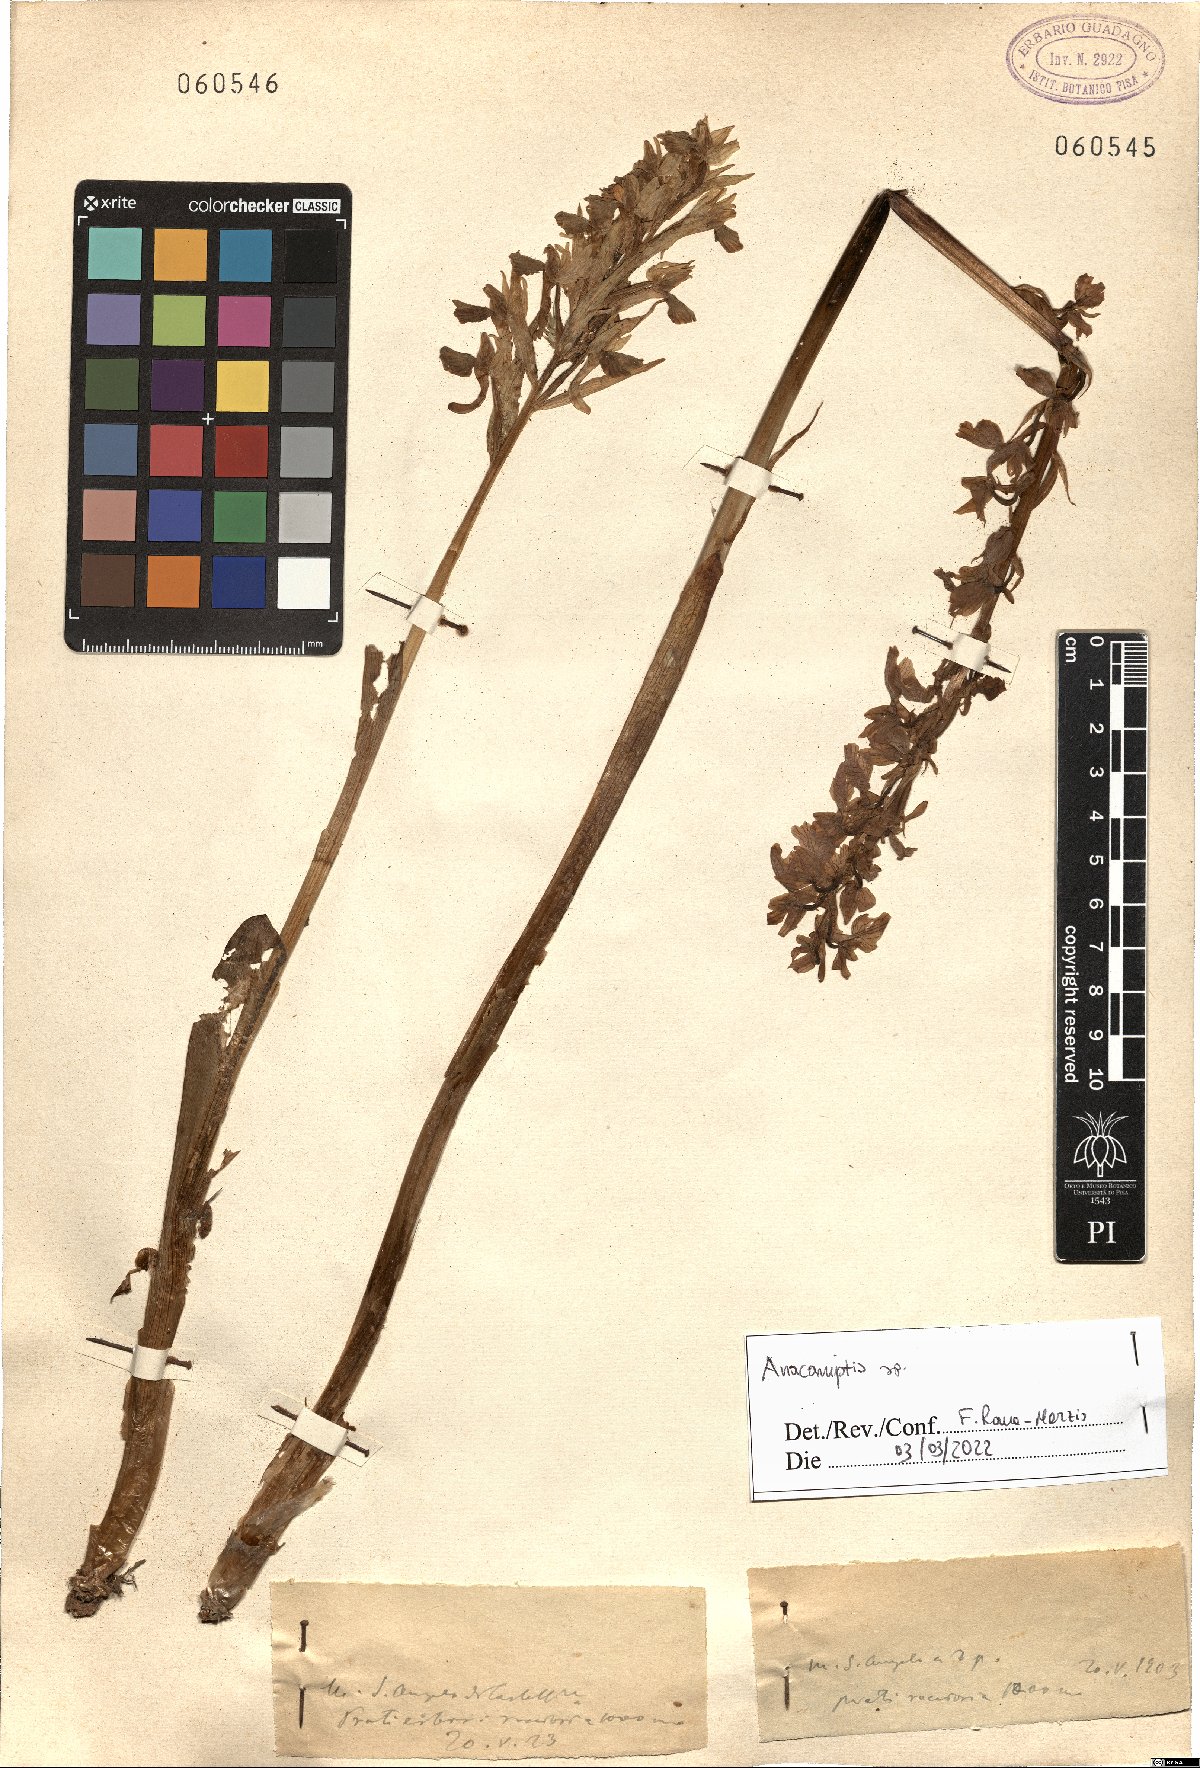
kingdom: Plantae
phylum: Tracheophyta
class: Liliopsida
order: Asparagales
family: Orchidaceae
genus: Anacamptis
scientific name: Anacamptis
